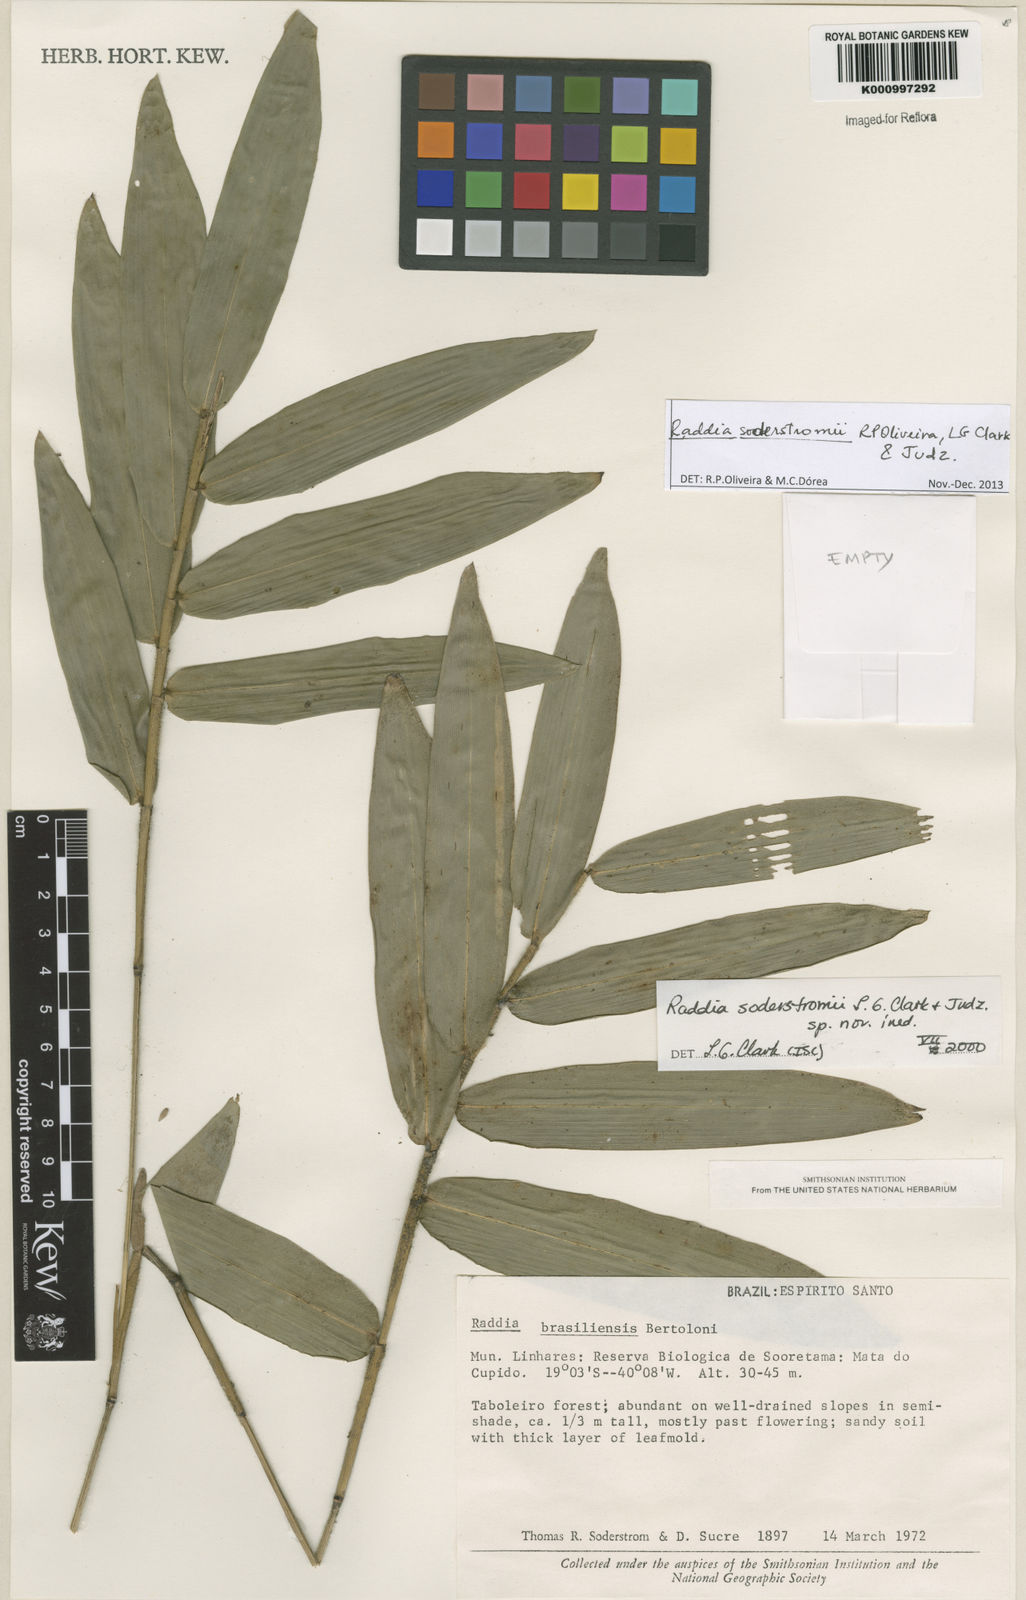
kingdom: Plantae
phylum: Tracheophyta
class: Liliopsida
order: Poales
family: Poaceae
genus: Raddia
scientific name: Raddia soderstromii
